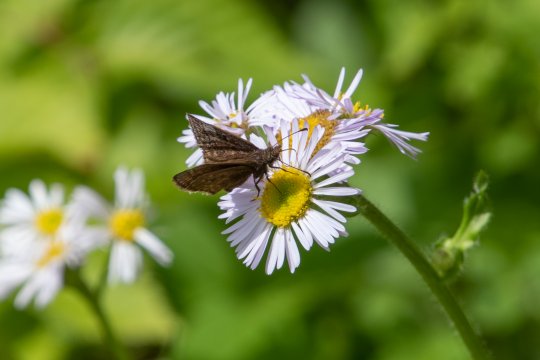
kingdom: Animalia
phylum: Arthropoda
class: Insecta
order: Lepidoptera
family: Hesperiidae
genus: Erynnis
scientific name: Erynnis icelus
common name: Dreamy Duskywing
